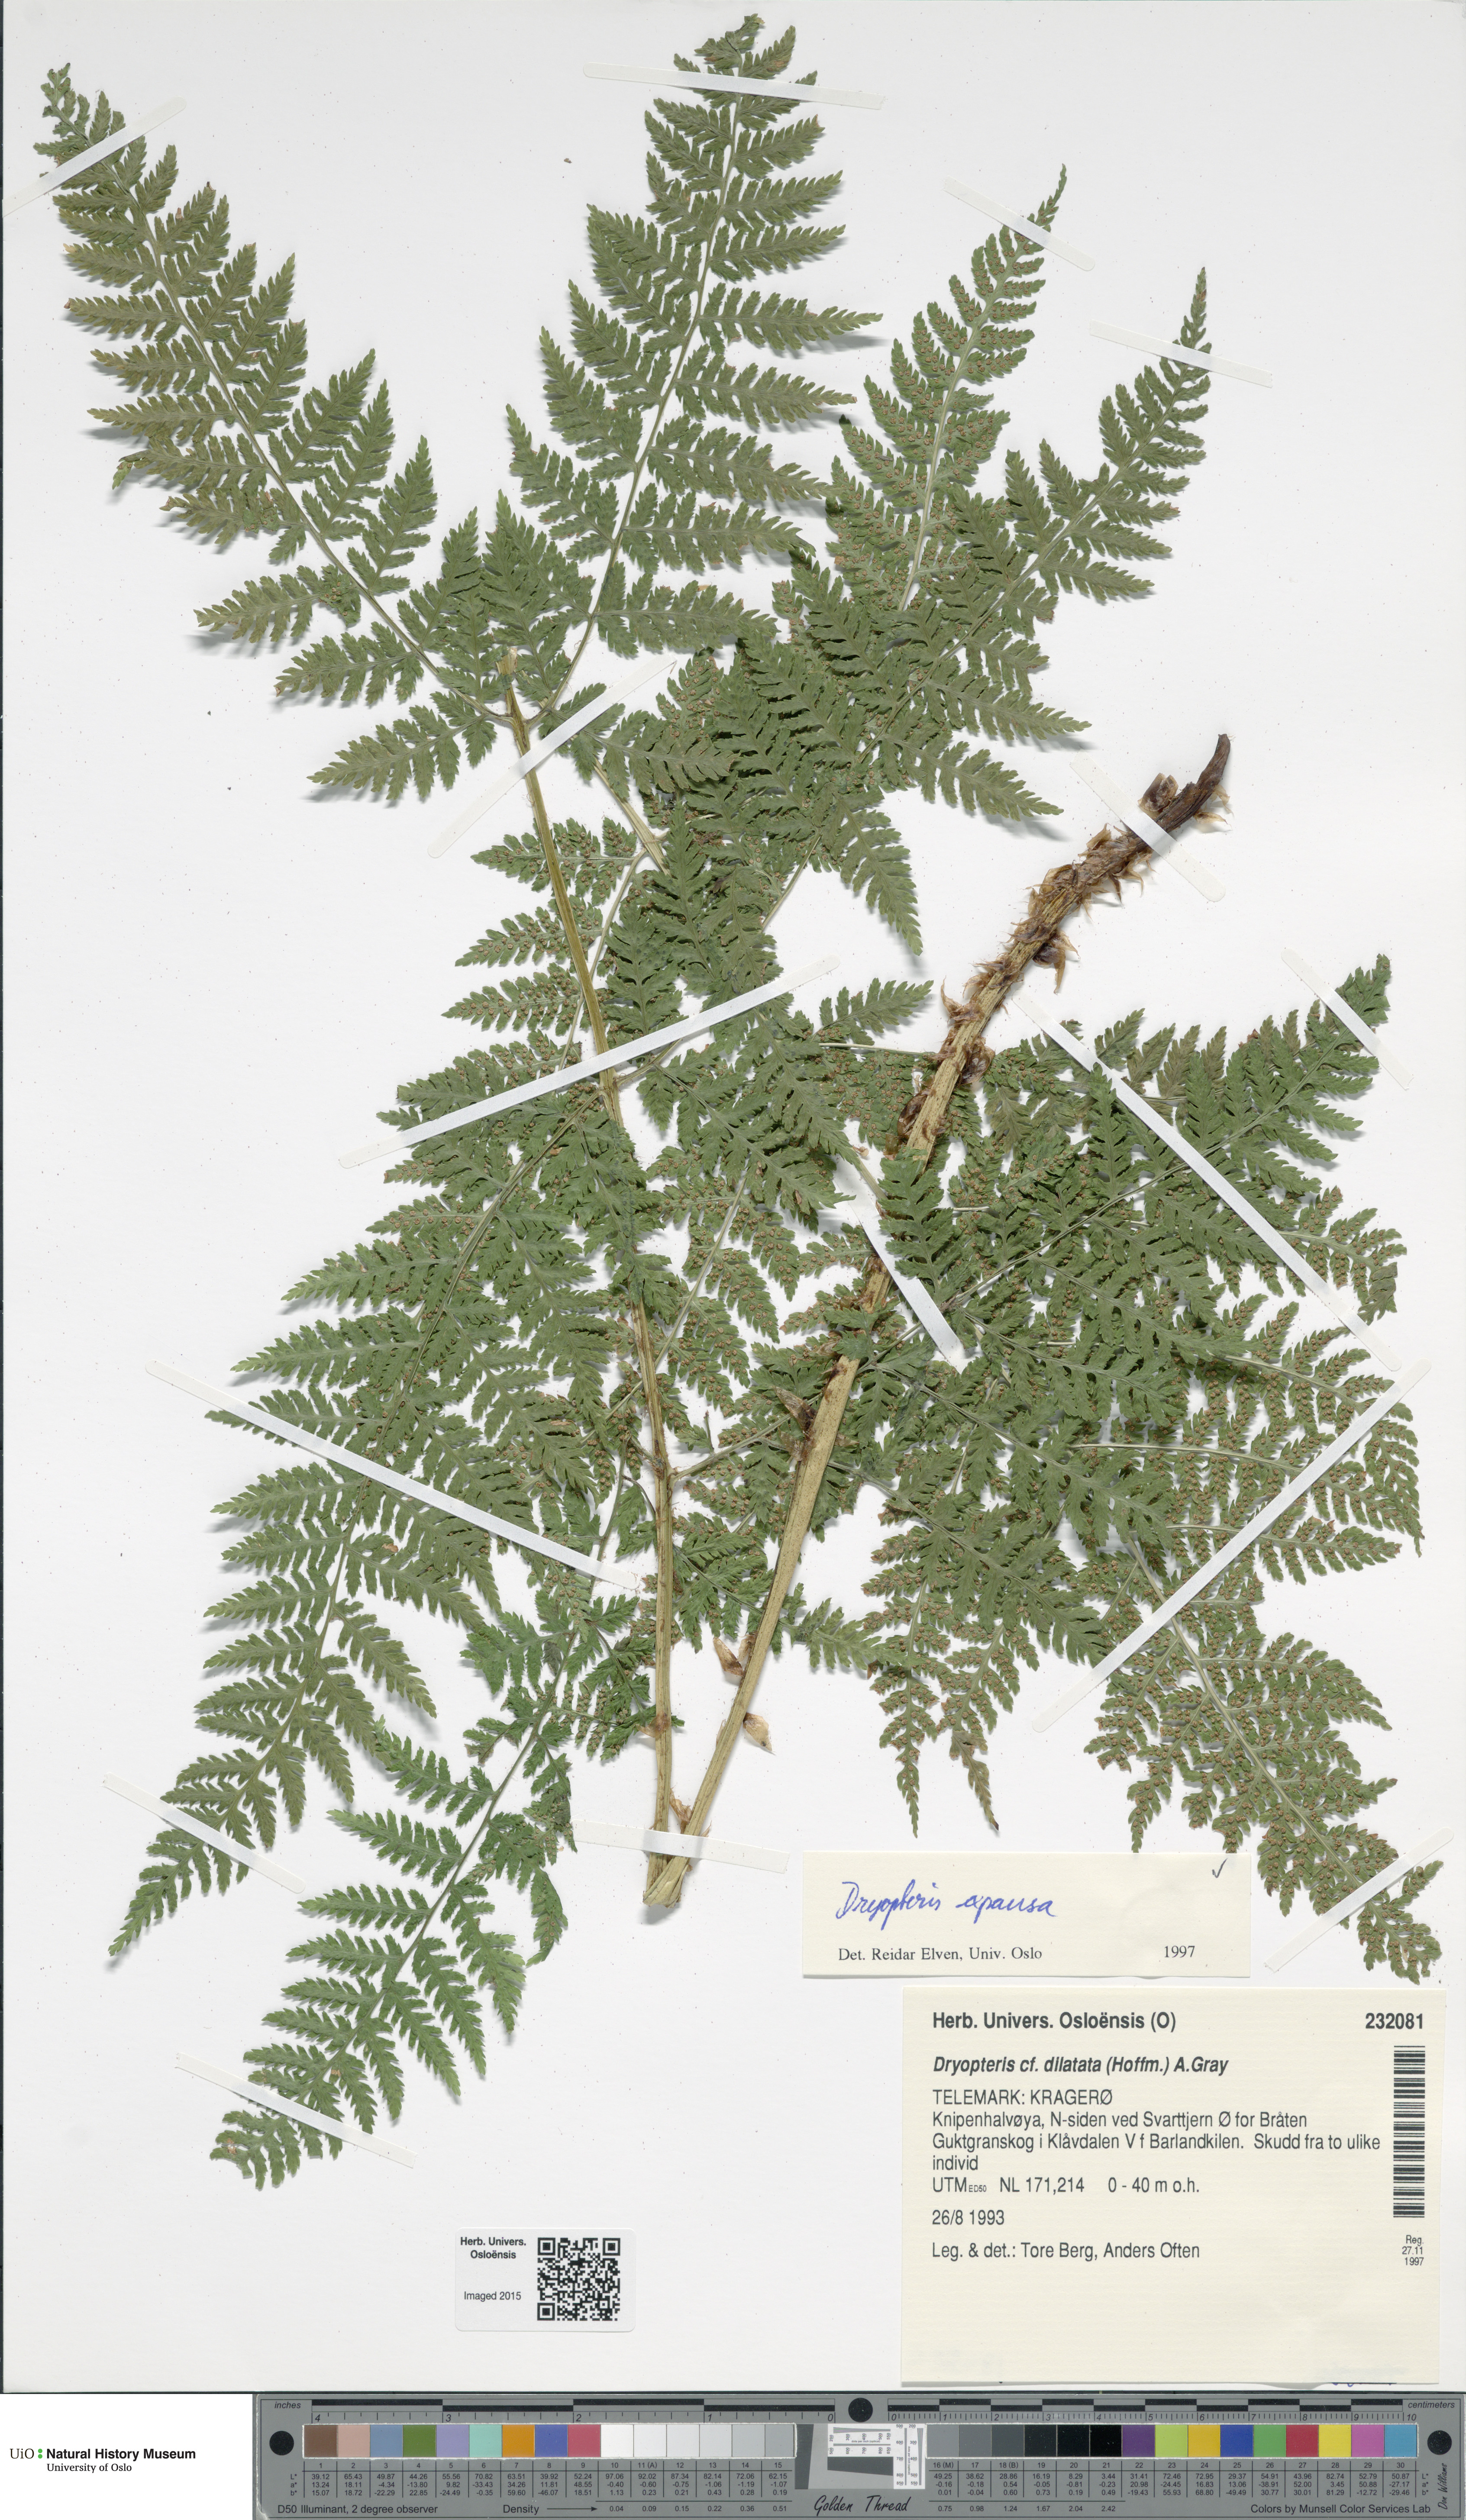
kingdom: Plantae
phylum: Tracheophyta
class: Polypodiopsida
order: Polypodiales
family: Dryopteridaceae
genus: Dryopteris
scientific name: Dryopteris expansa
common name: Northern buckler fern
